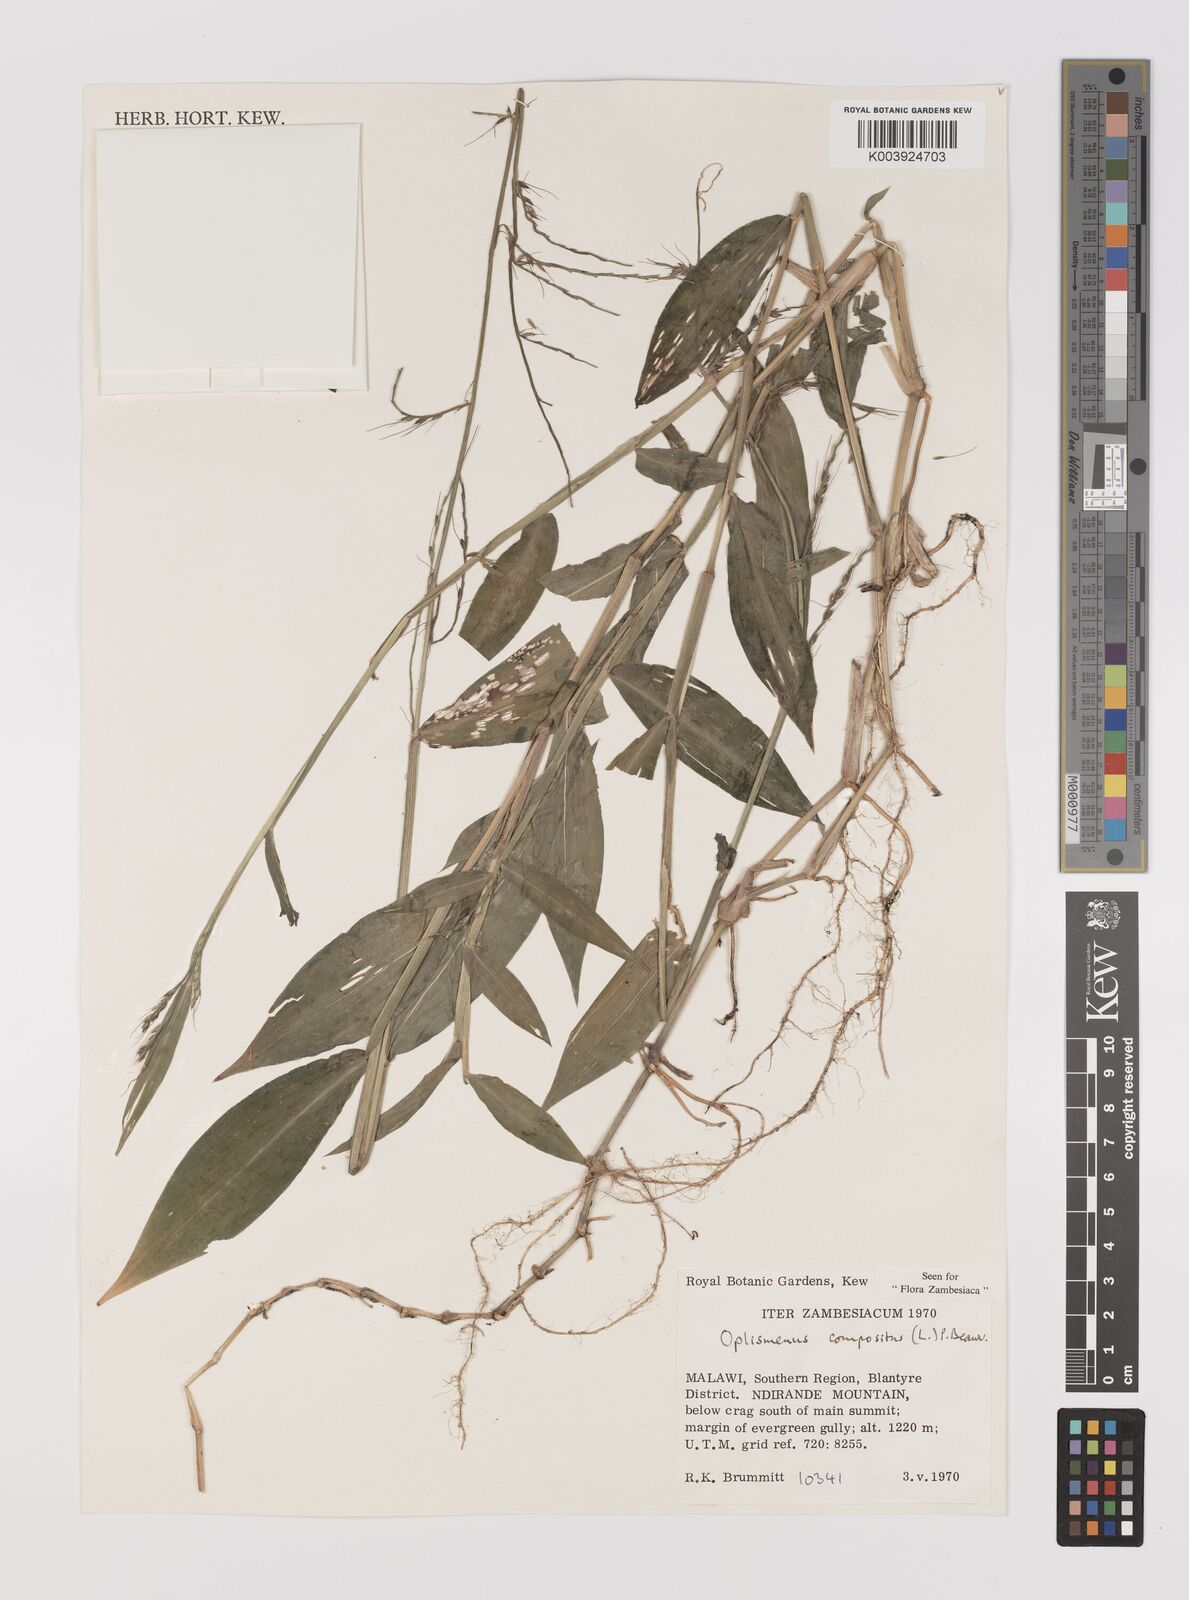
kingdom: Plantae
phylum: Tracheophyta
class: Liliopsida
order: Poales
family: Poaceae
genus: Oplismenus
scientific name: Oplismenus compositus
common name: Running mountain grass
